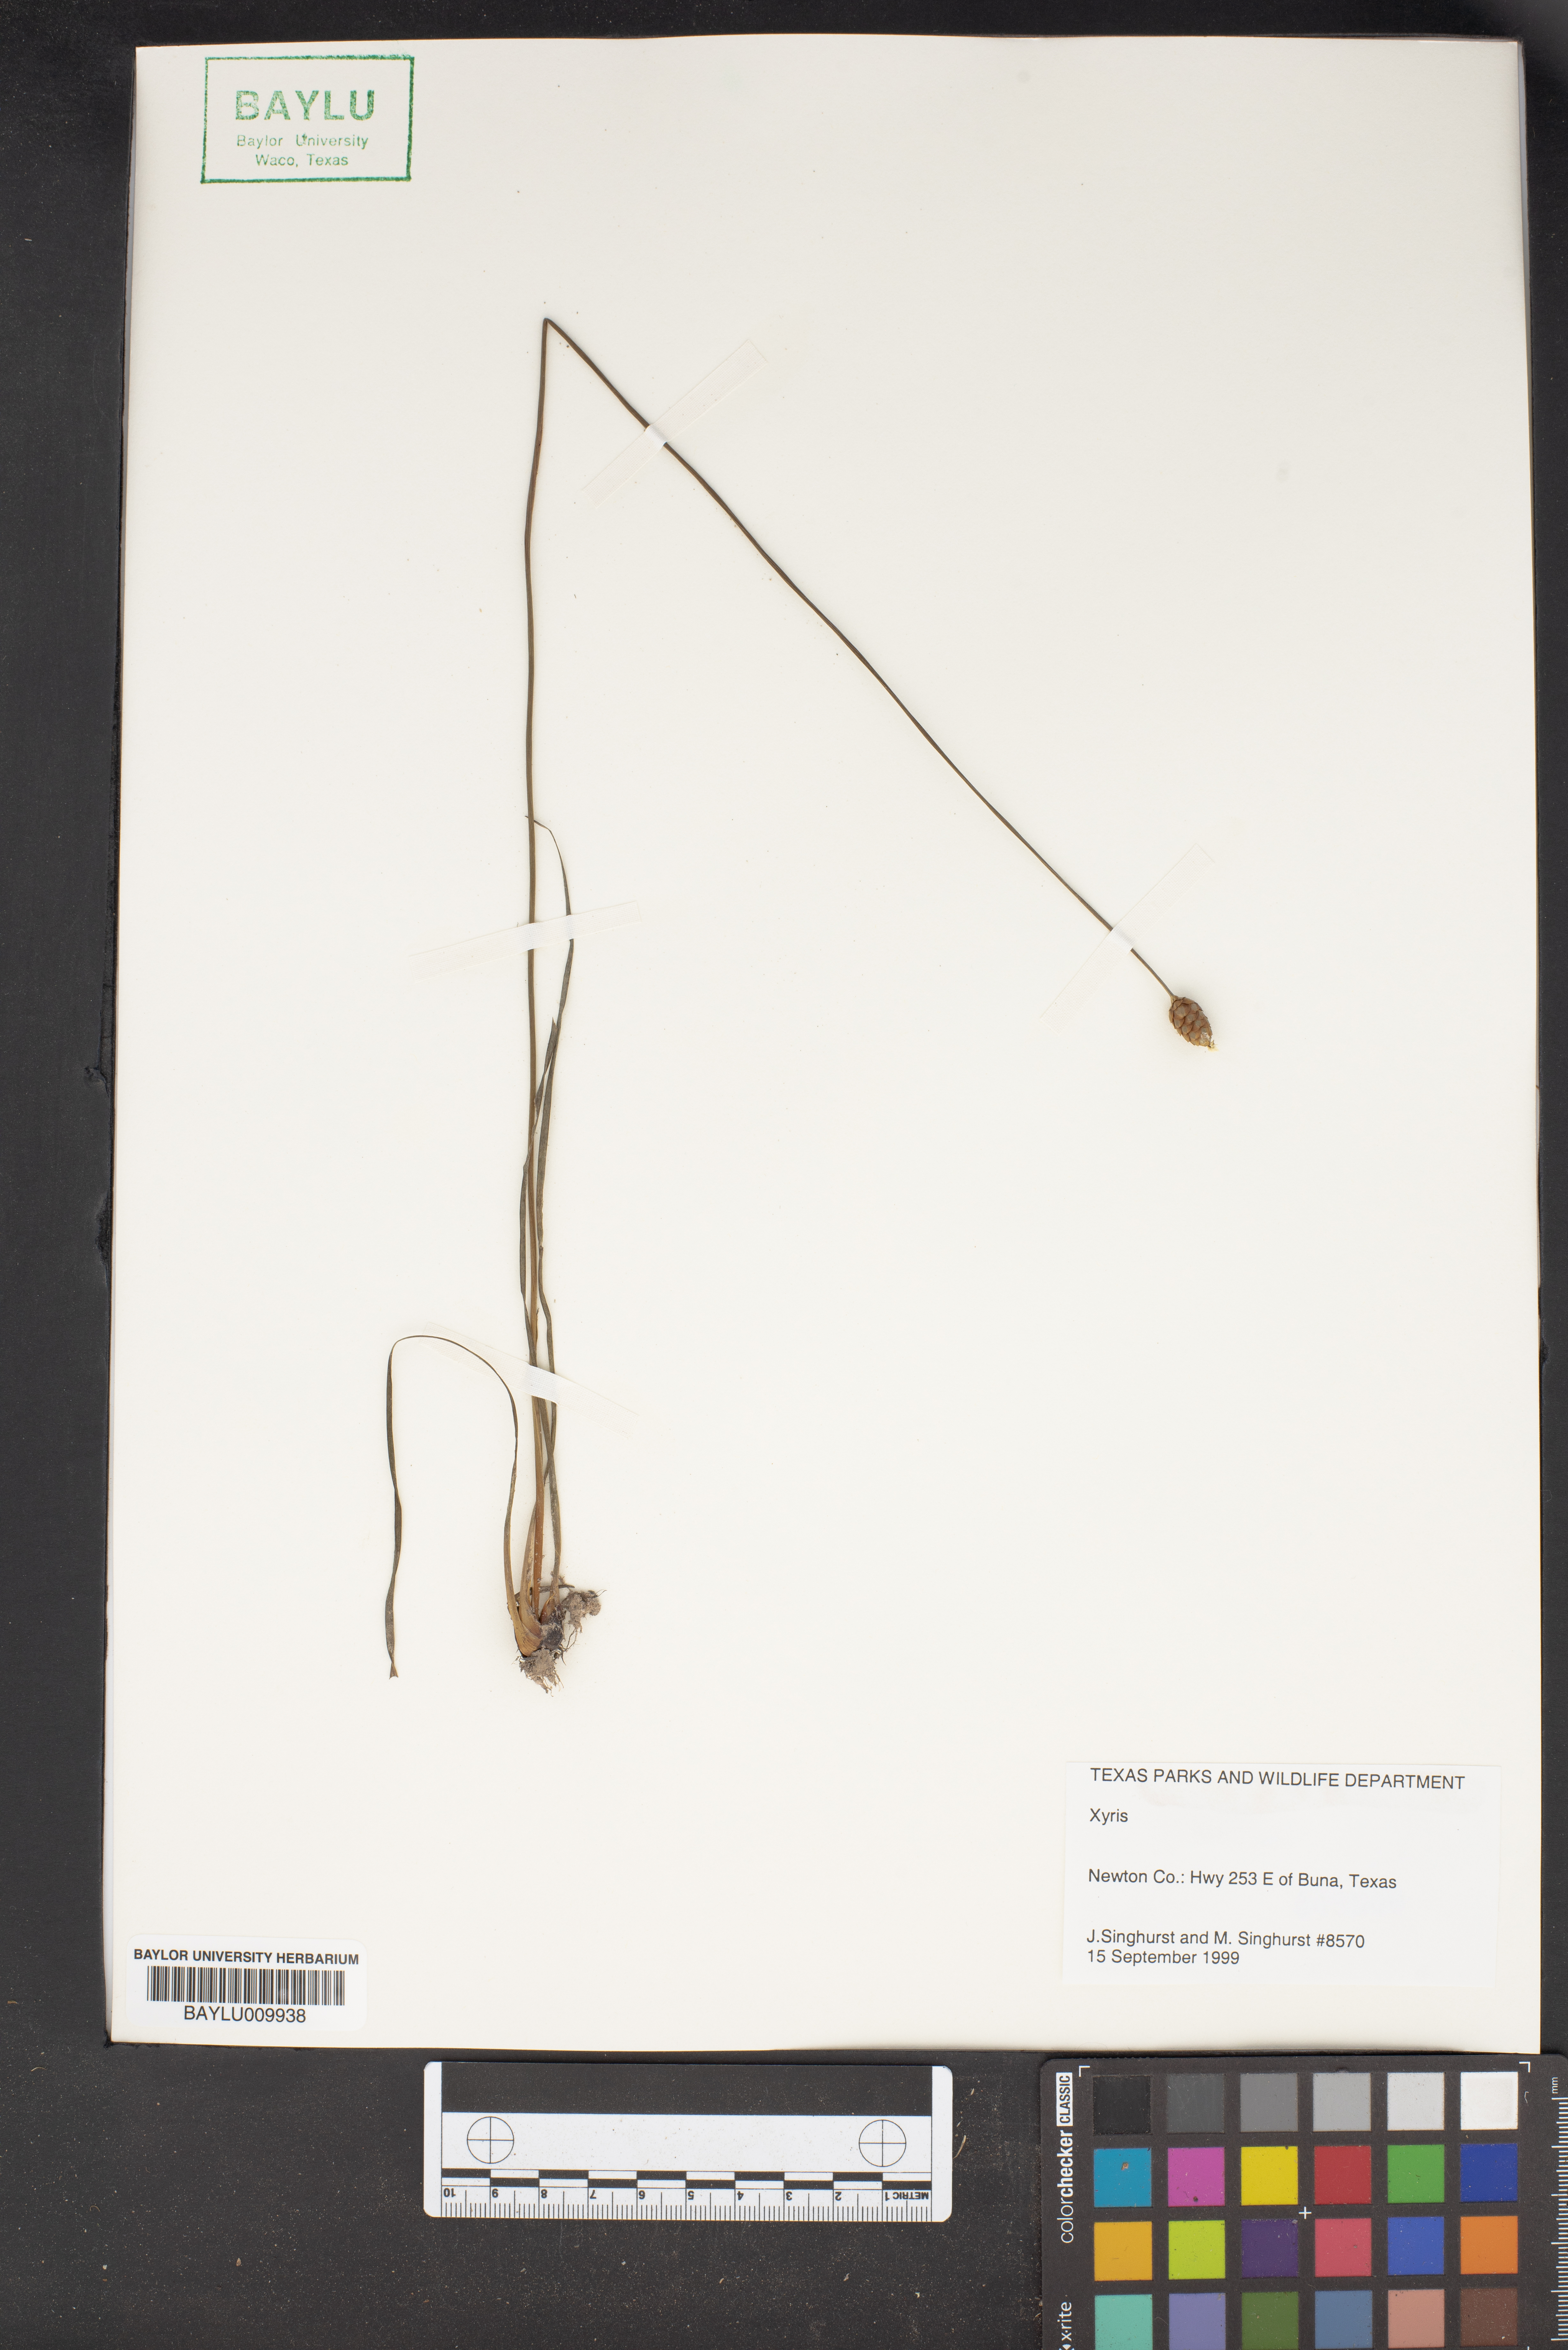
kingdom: Plantae
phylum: Tracheophyta
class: Liliopsida
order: Poales
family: Xyridaceae
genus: Xyris
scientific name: Xyris
